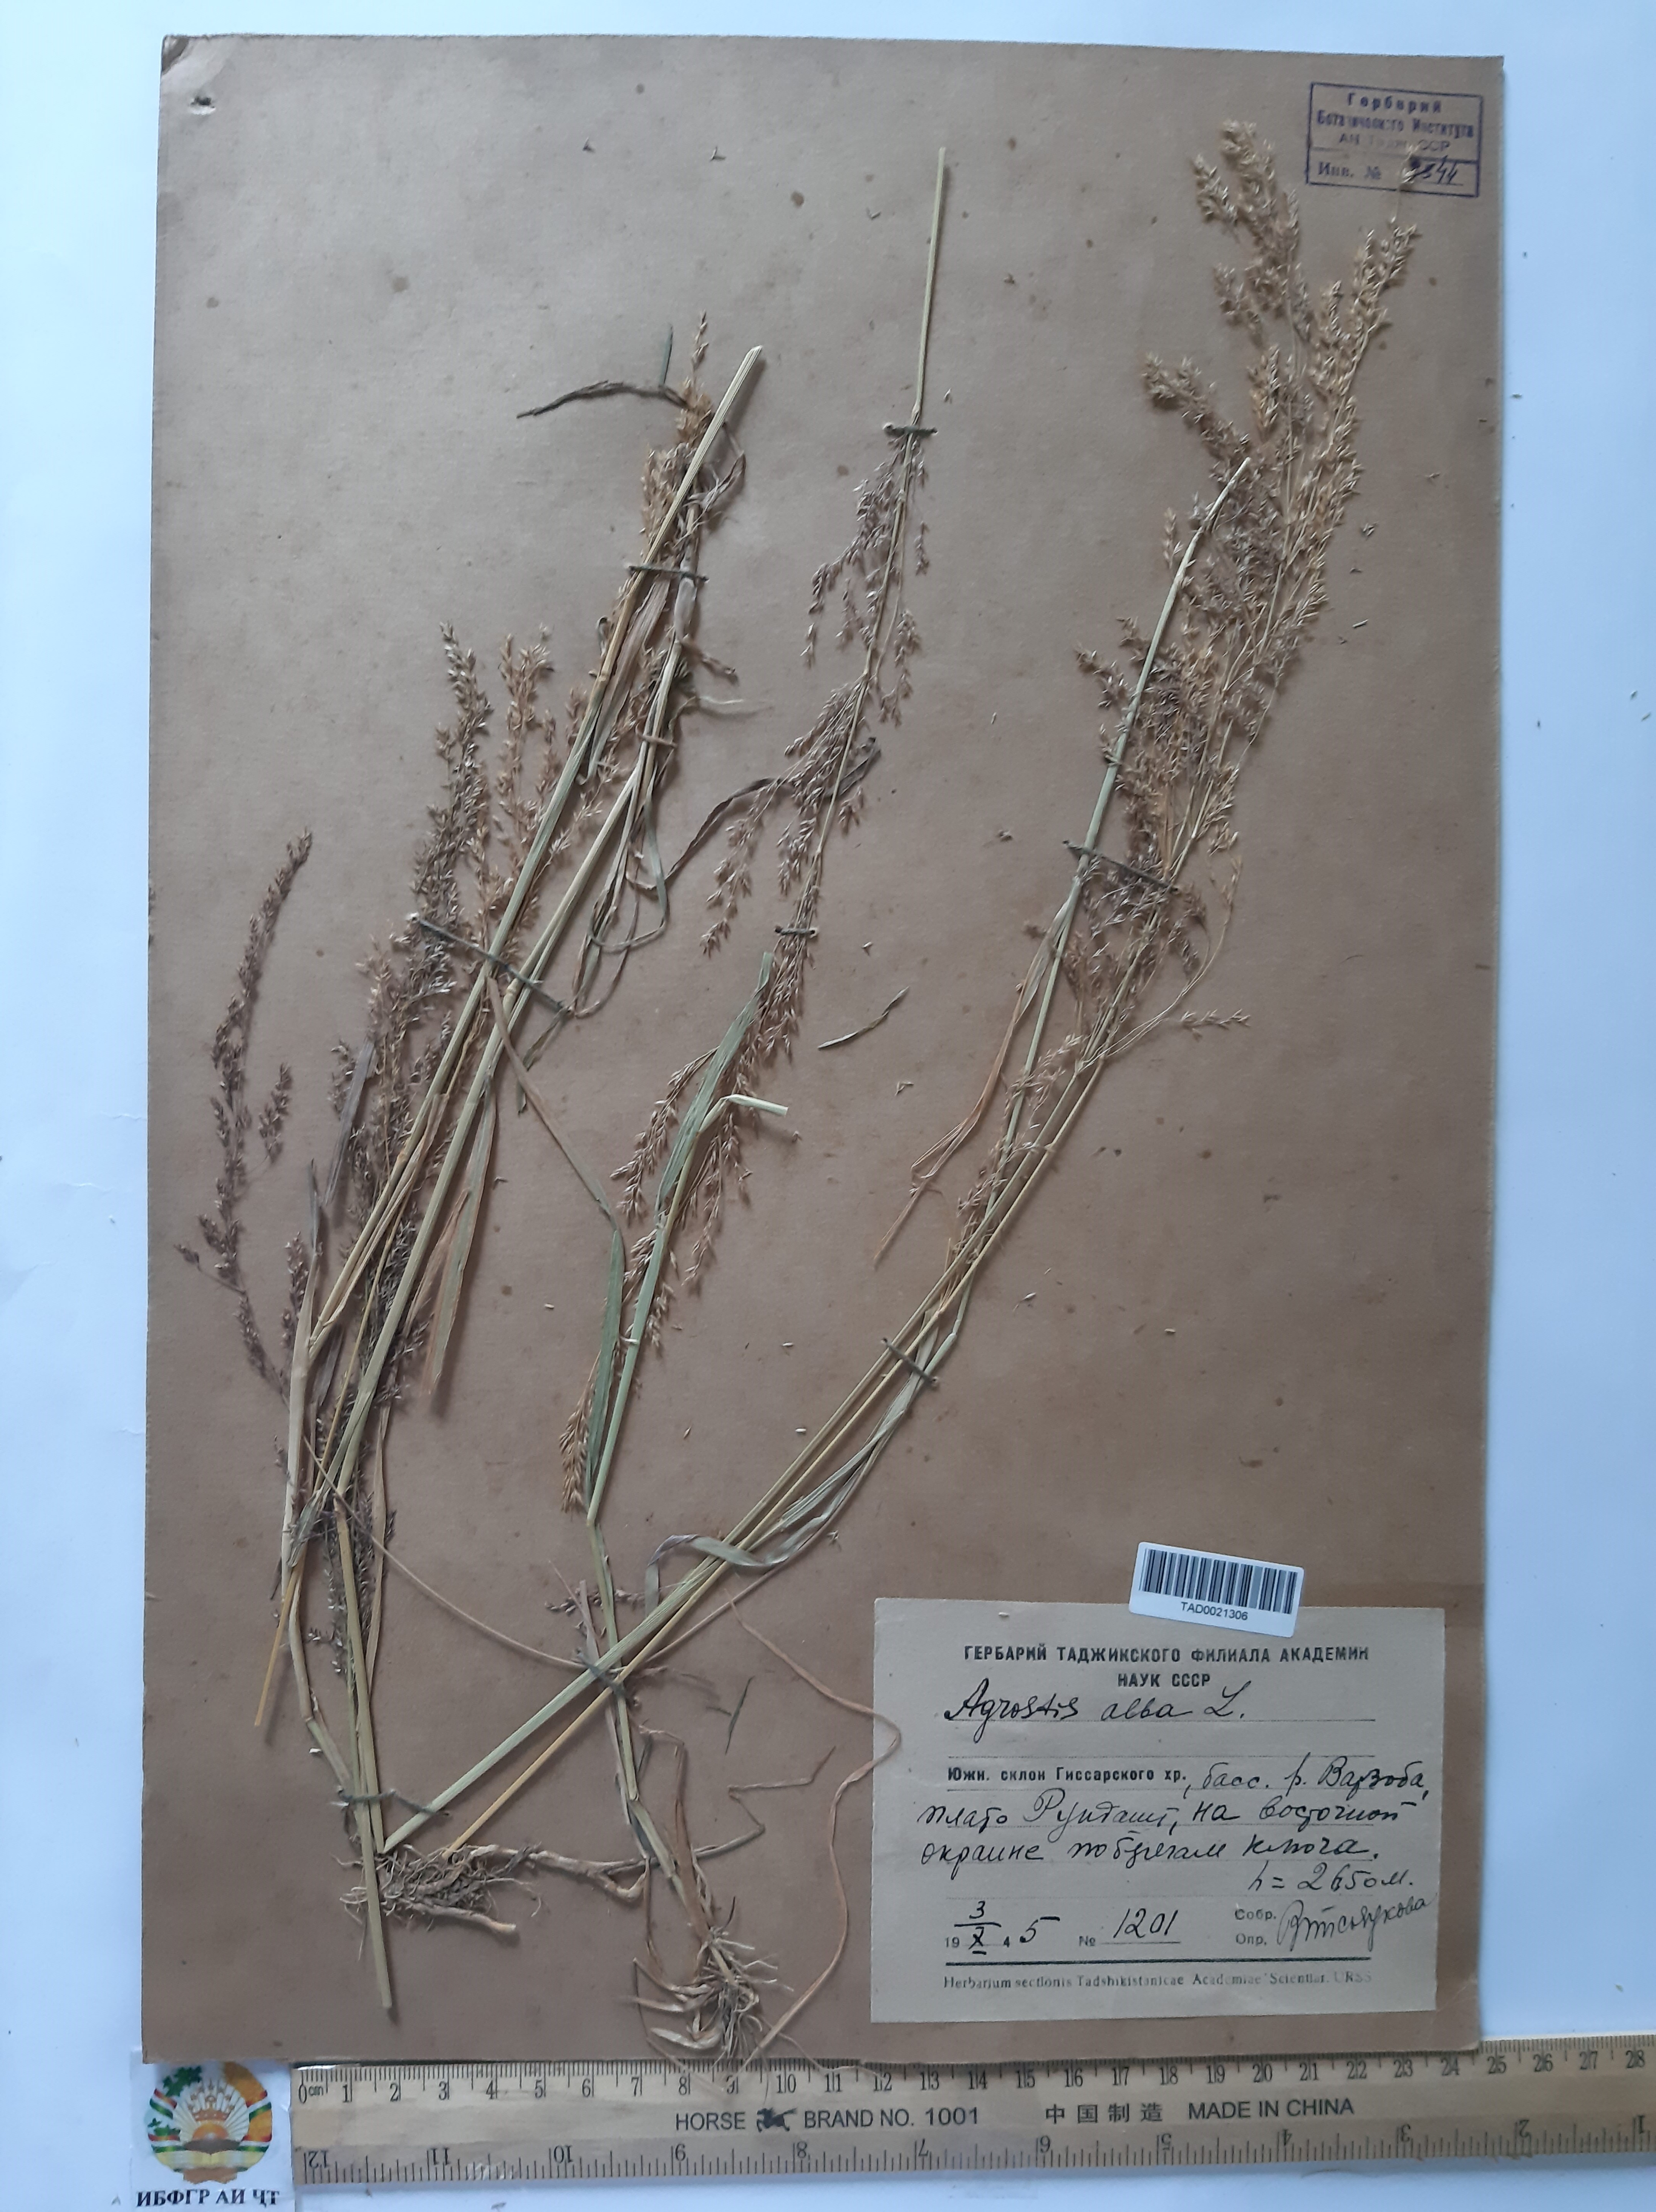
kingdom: Plantae
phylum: Tracheophyta
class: Liliopsida
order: Poales
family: Poaceae
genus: Poa
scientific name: Poa nemoralis
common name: Wood bluegrass
